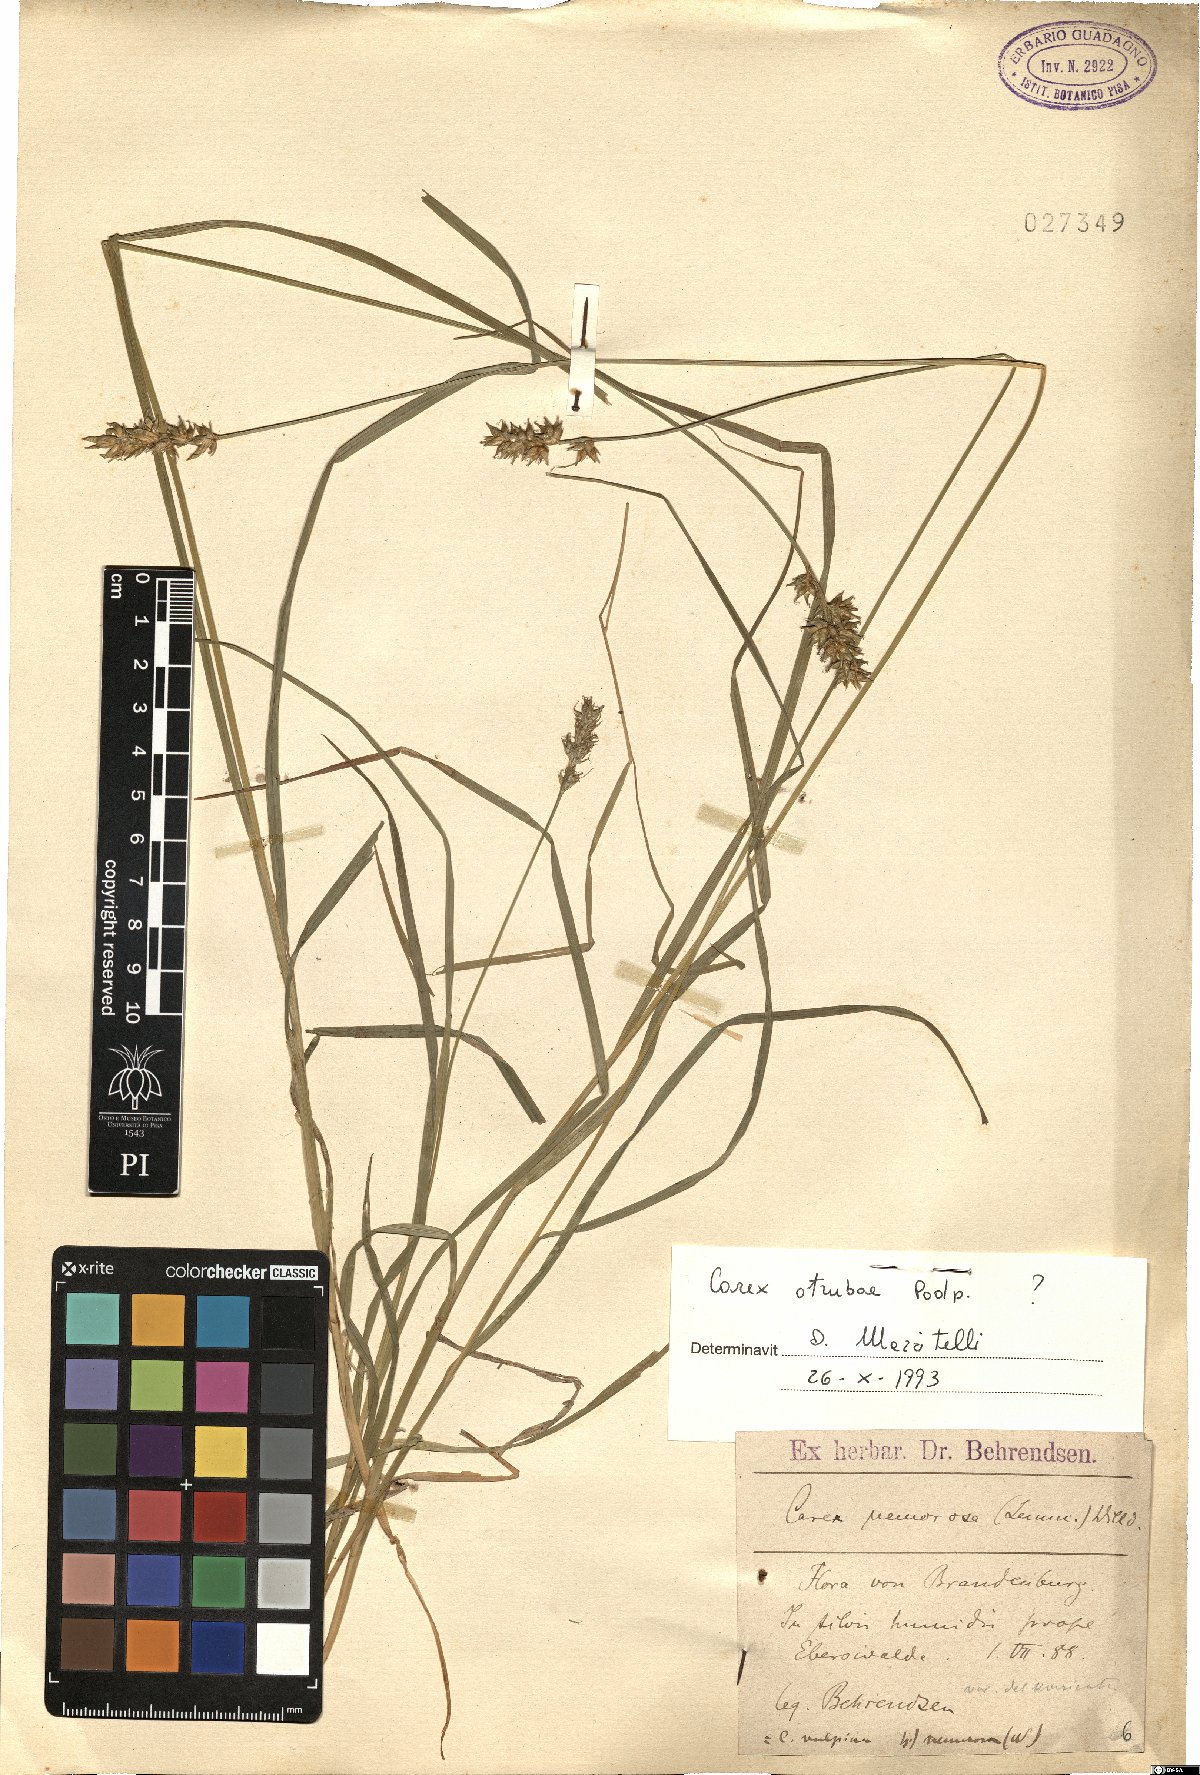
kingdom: Plantae
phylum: Tracheophyta
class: Liliopsida
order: Poales
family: Cyperaceae
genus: Carex
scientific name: Carex otrubae
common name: False fox-sedge
